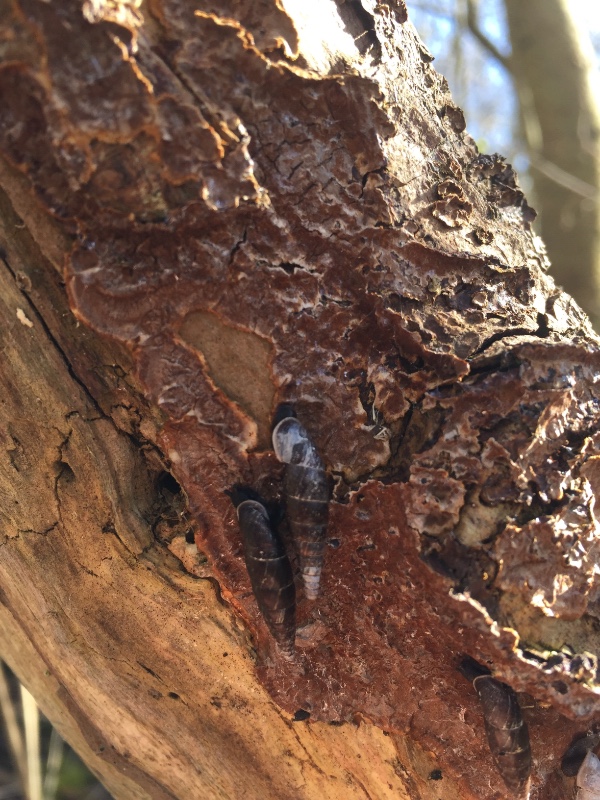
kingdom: Fungi
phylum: Basidiomycota
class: Agaricomycetes
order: Hymenochaetales
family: Hymenochaetaceae
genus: Hydnoporia
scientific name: Hydnoporia tabacina
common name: tobaksbrun ruslædersvamp
